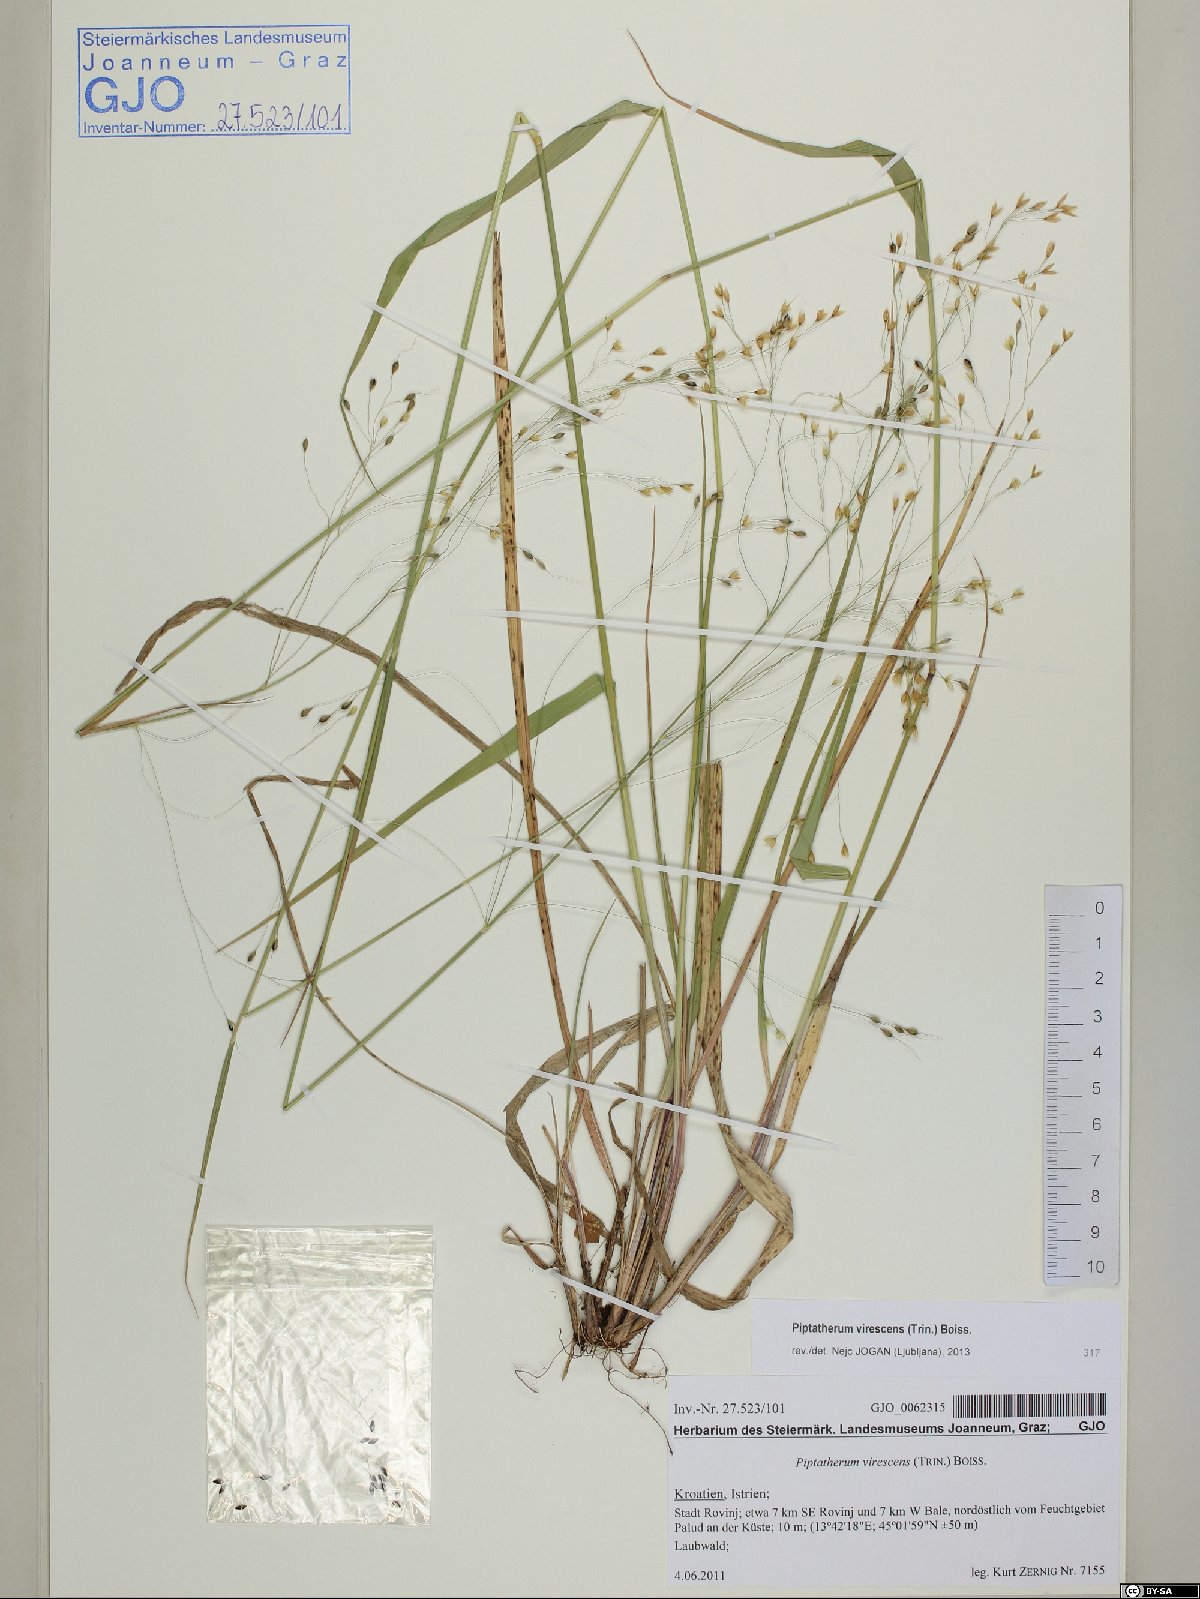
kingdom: Plantae
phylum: Tracheophyta
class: Liliopsida
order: Poales
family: Poaceae
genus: Achnatherum
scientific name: Achnatherum virescens
